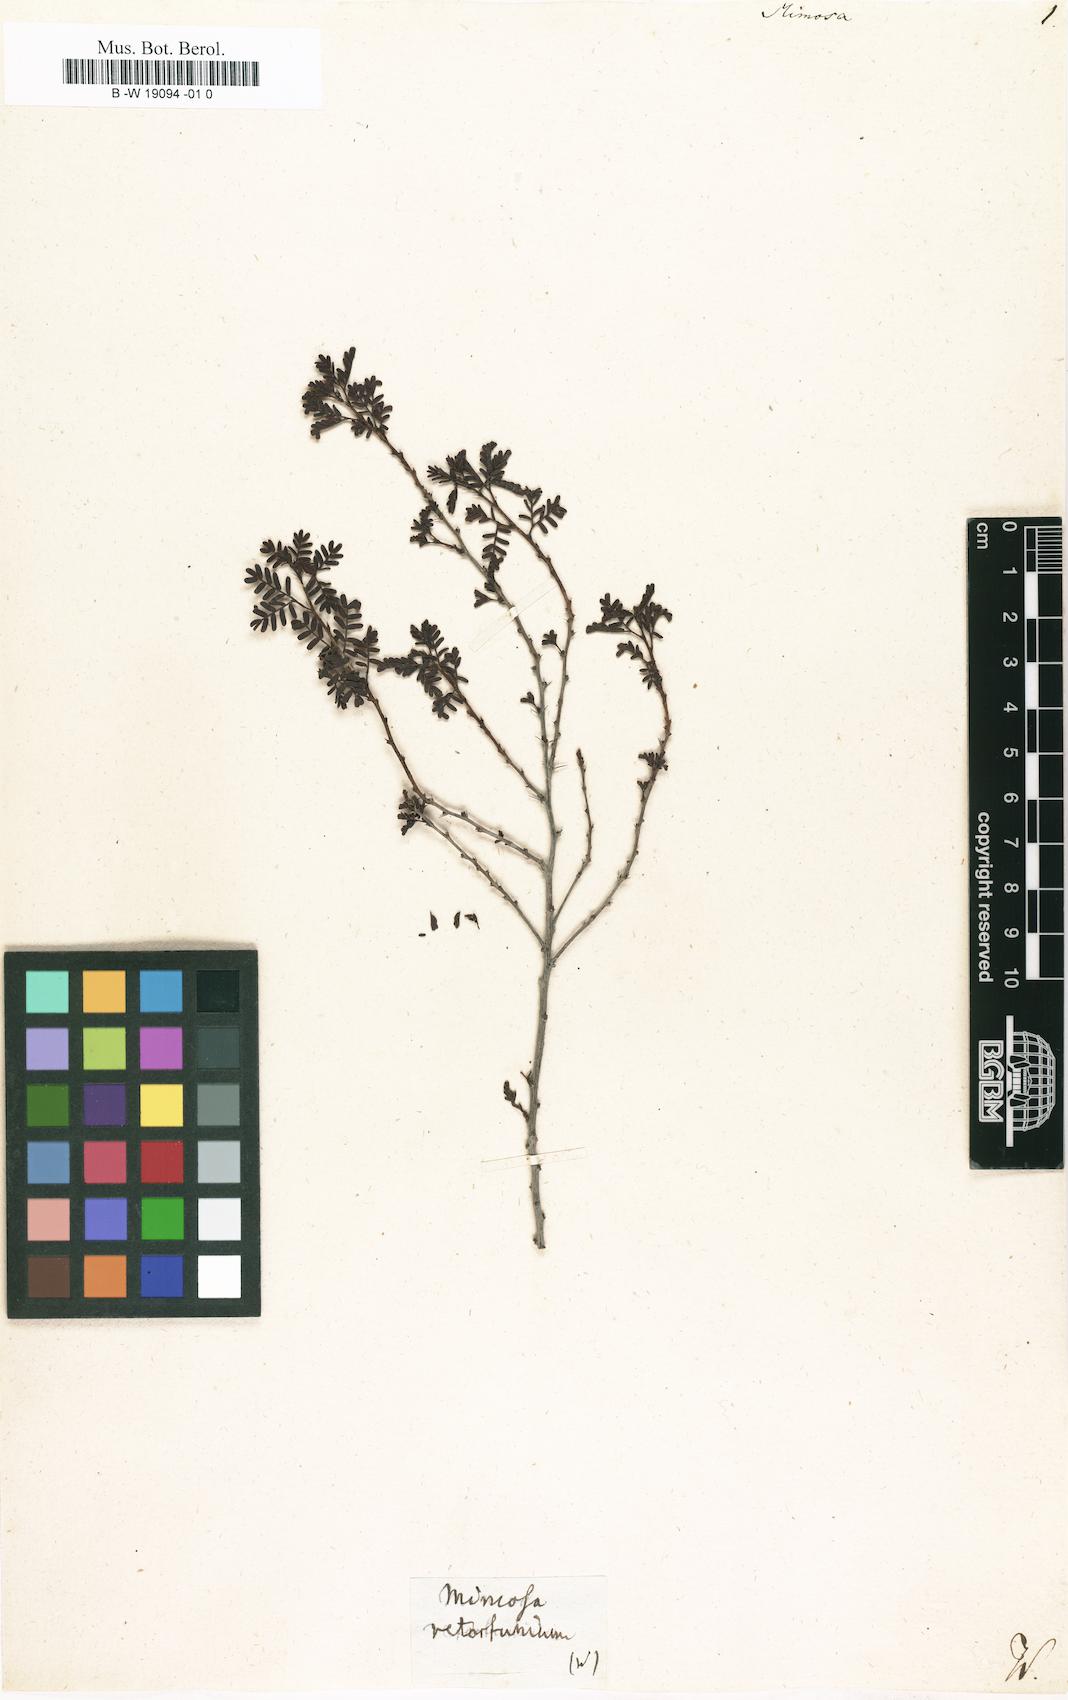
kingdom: Plantae
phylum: Tracheophyta
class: Magnoliopsida
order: Fabales
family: Fabaceae
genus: Mimosa
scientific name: Mimosa
